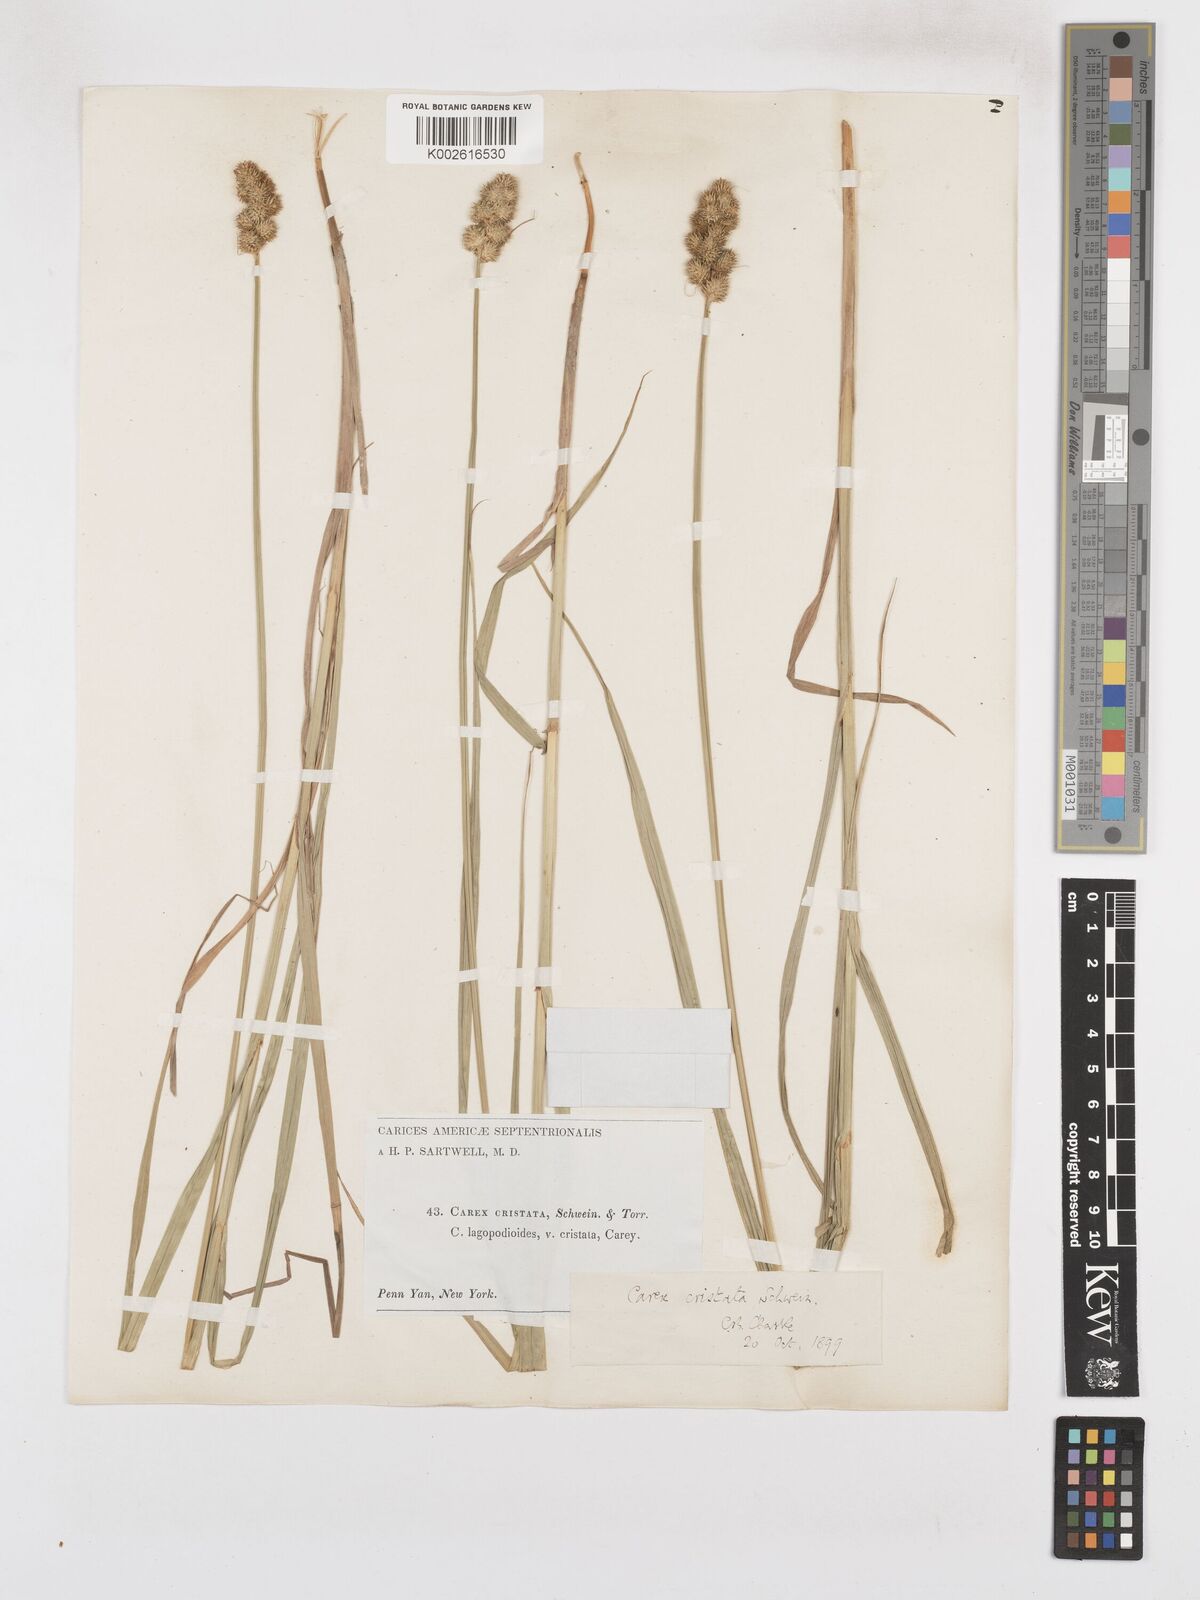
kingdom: Plantae
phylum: Tracheophyta
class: Liliopsida
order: Poales
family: Cyperaceae
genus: Carex
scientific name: Carex cristatella
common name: Crested oval sedge
